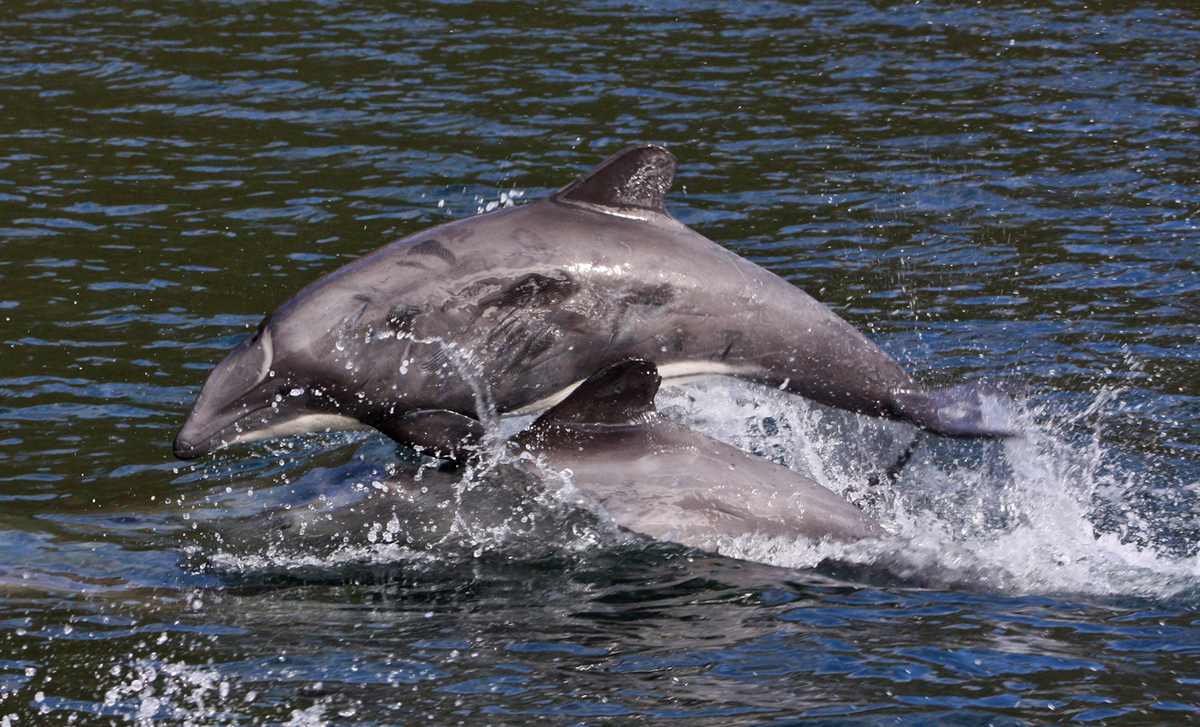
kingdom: Animalia
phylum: Chordata
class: Mammalia
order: Cetacea
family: Delphinidae
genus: Cephalorhynchus
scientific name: Cephalorhynchus eutropia
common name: Black dolphin
